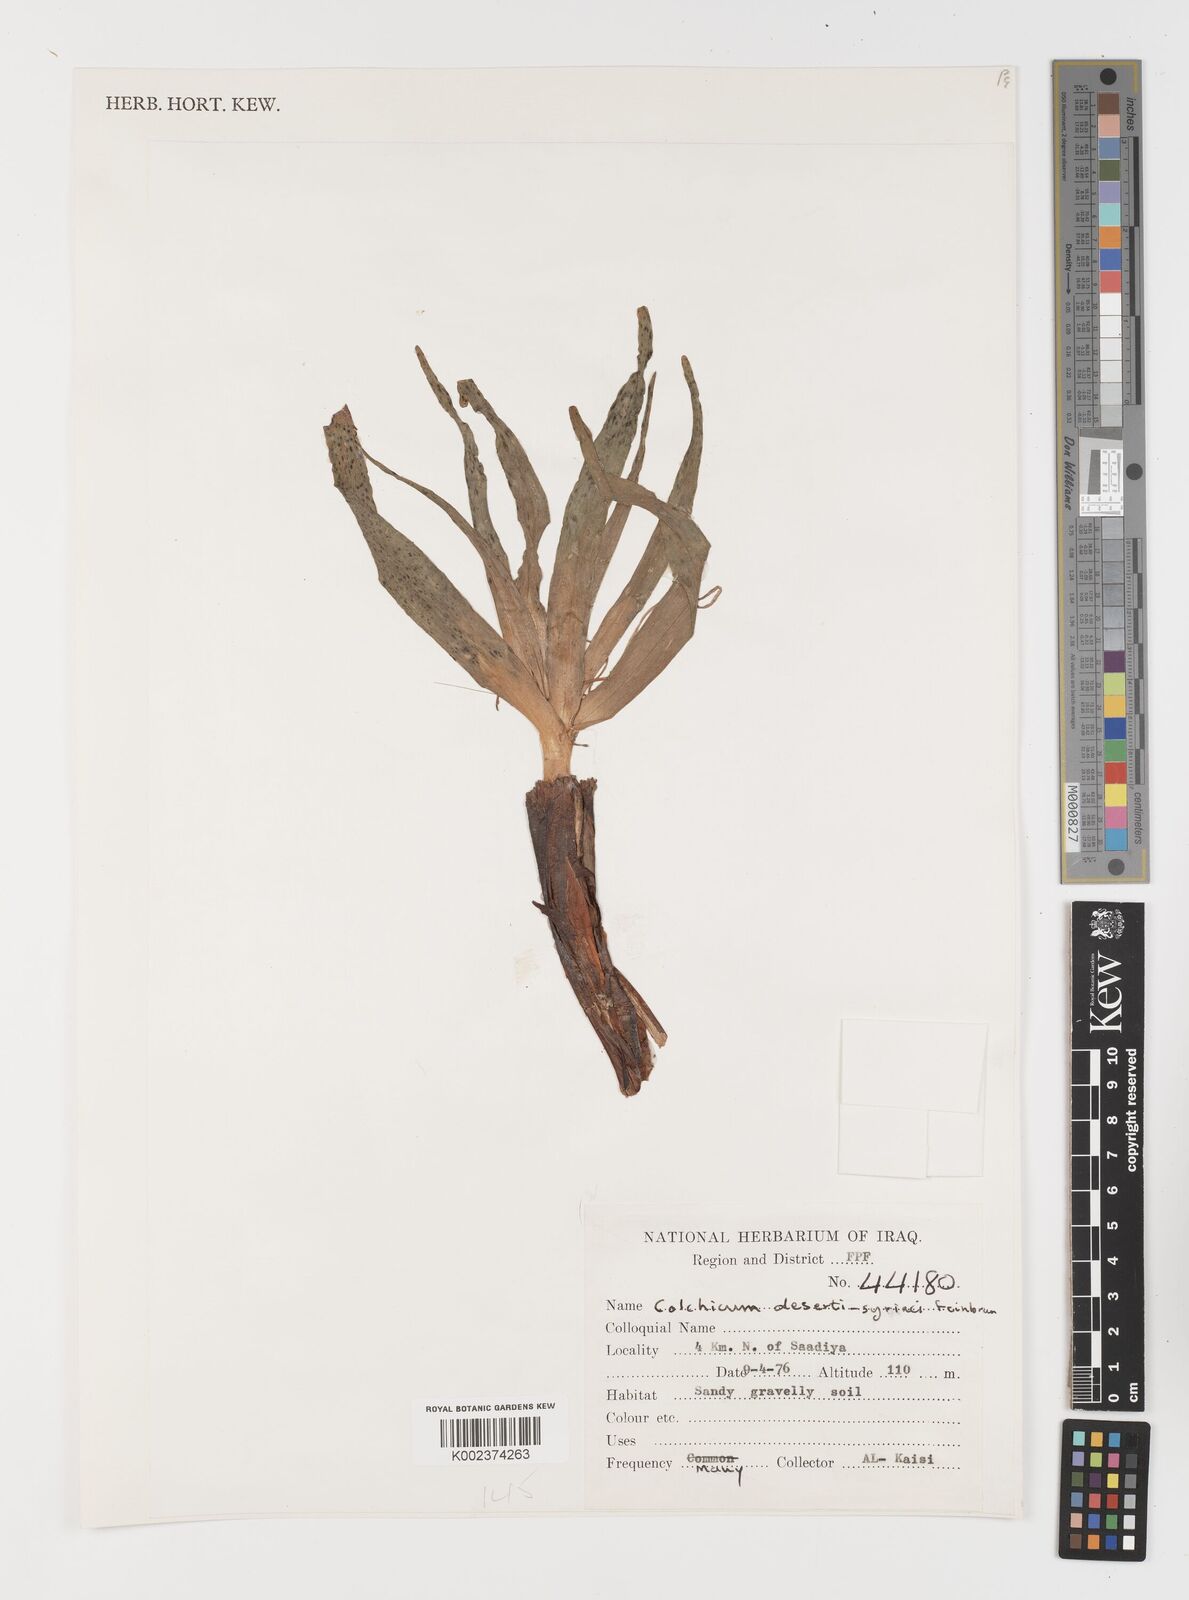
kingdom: Plantae
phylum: Tracheophyta
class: Liliopsida
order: Liliales
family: Colchicaceae
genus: Colchicum
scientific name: Colchicum schimperi
